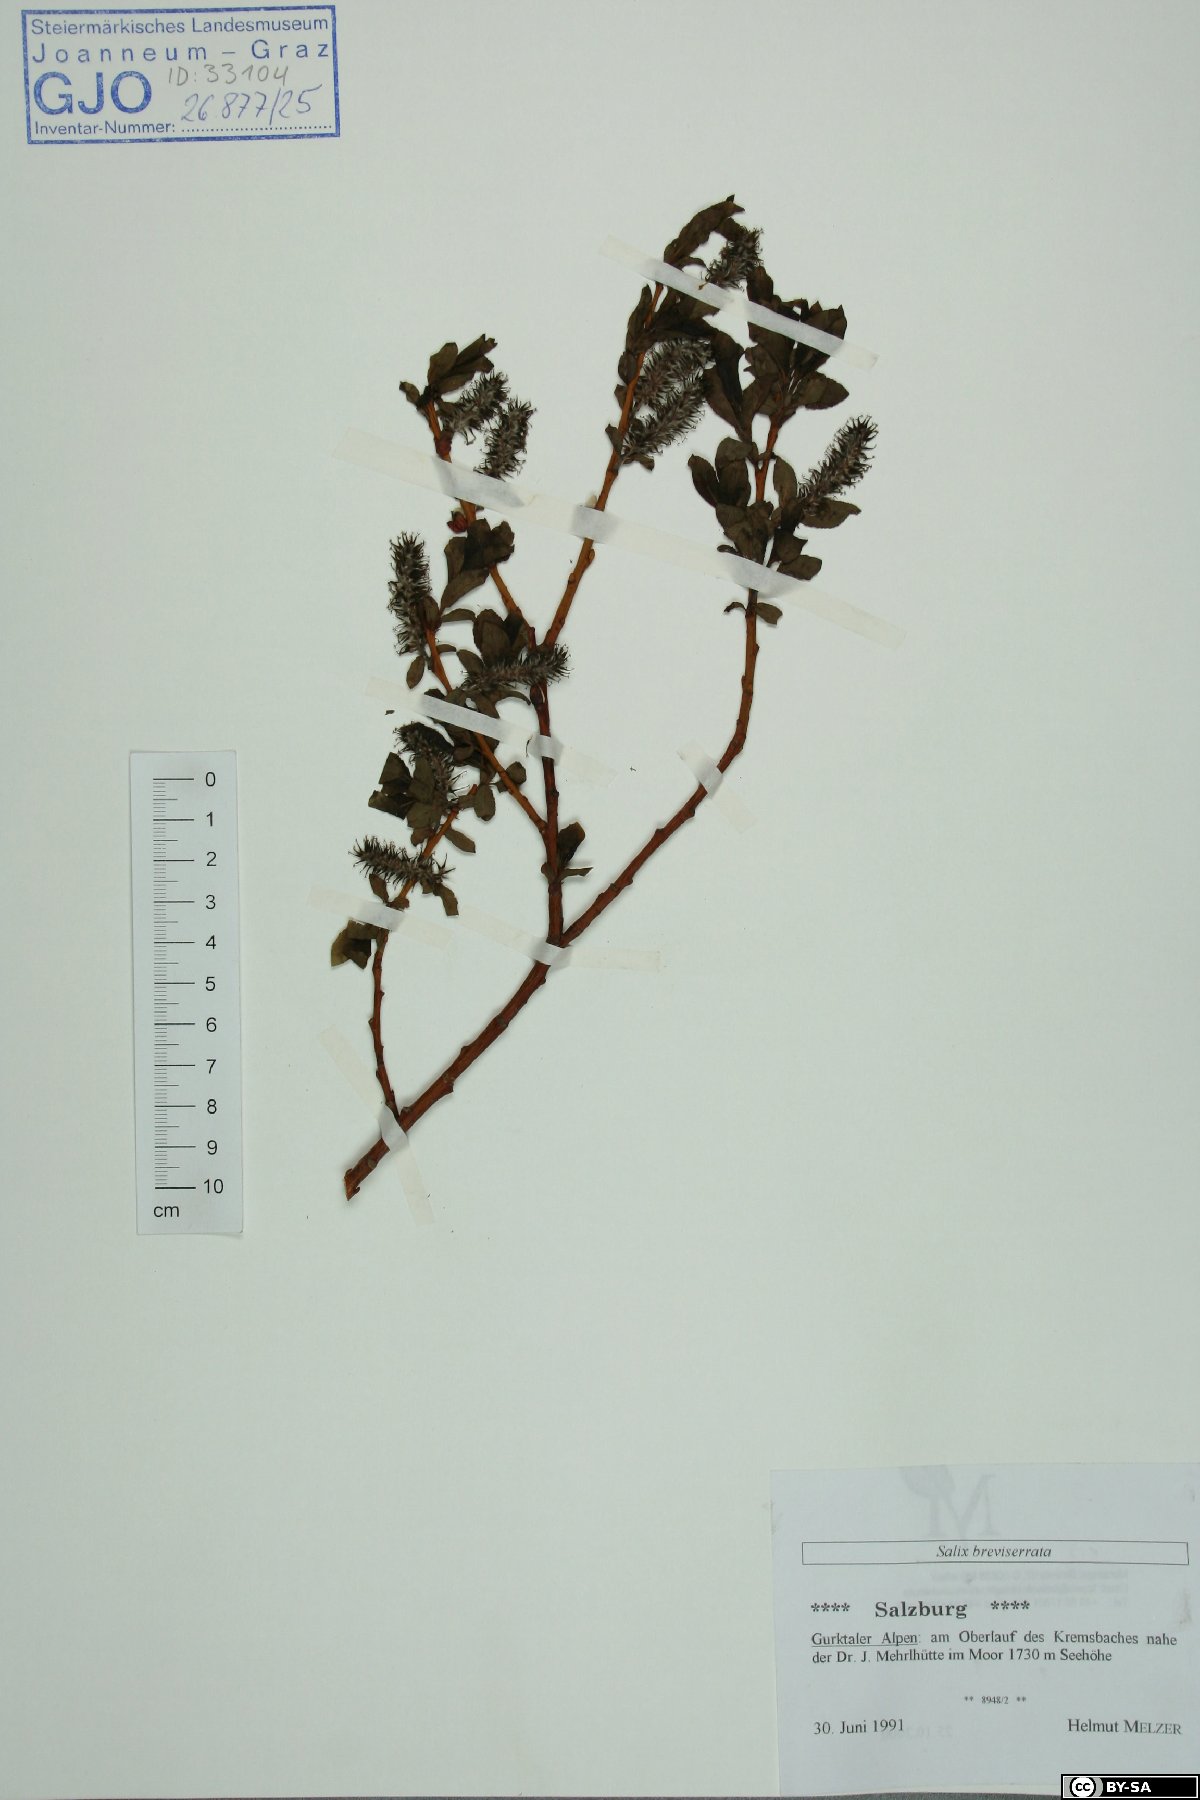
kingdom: Plantae
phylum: Tracheophyta
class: Magnoliopsida
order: Malpighiales
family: Salicaceae
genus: Salix
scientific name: Salix breviserrata
